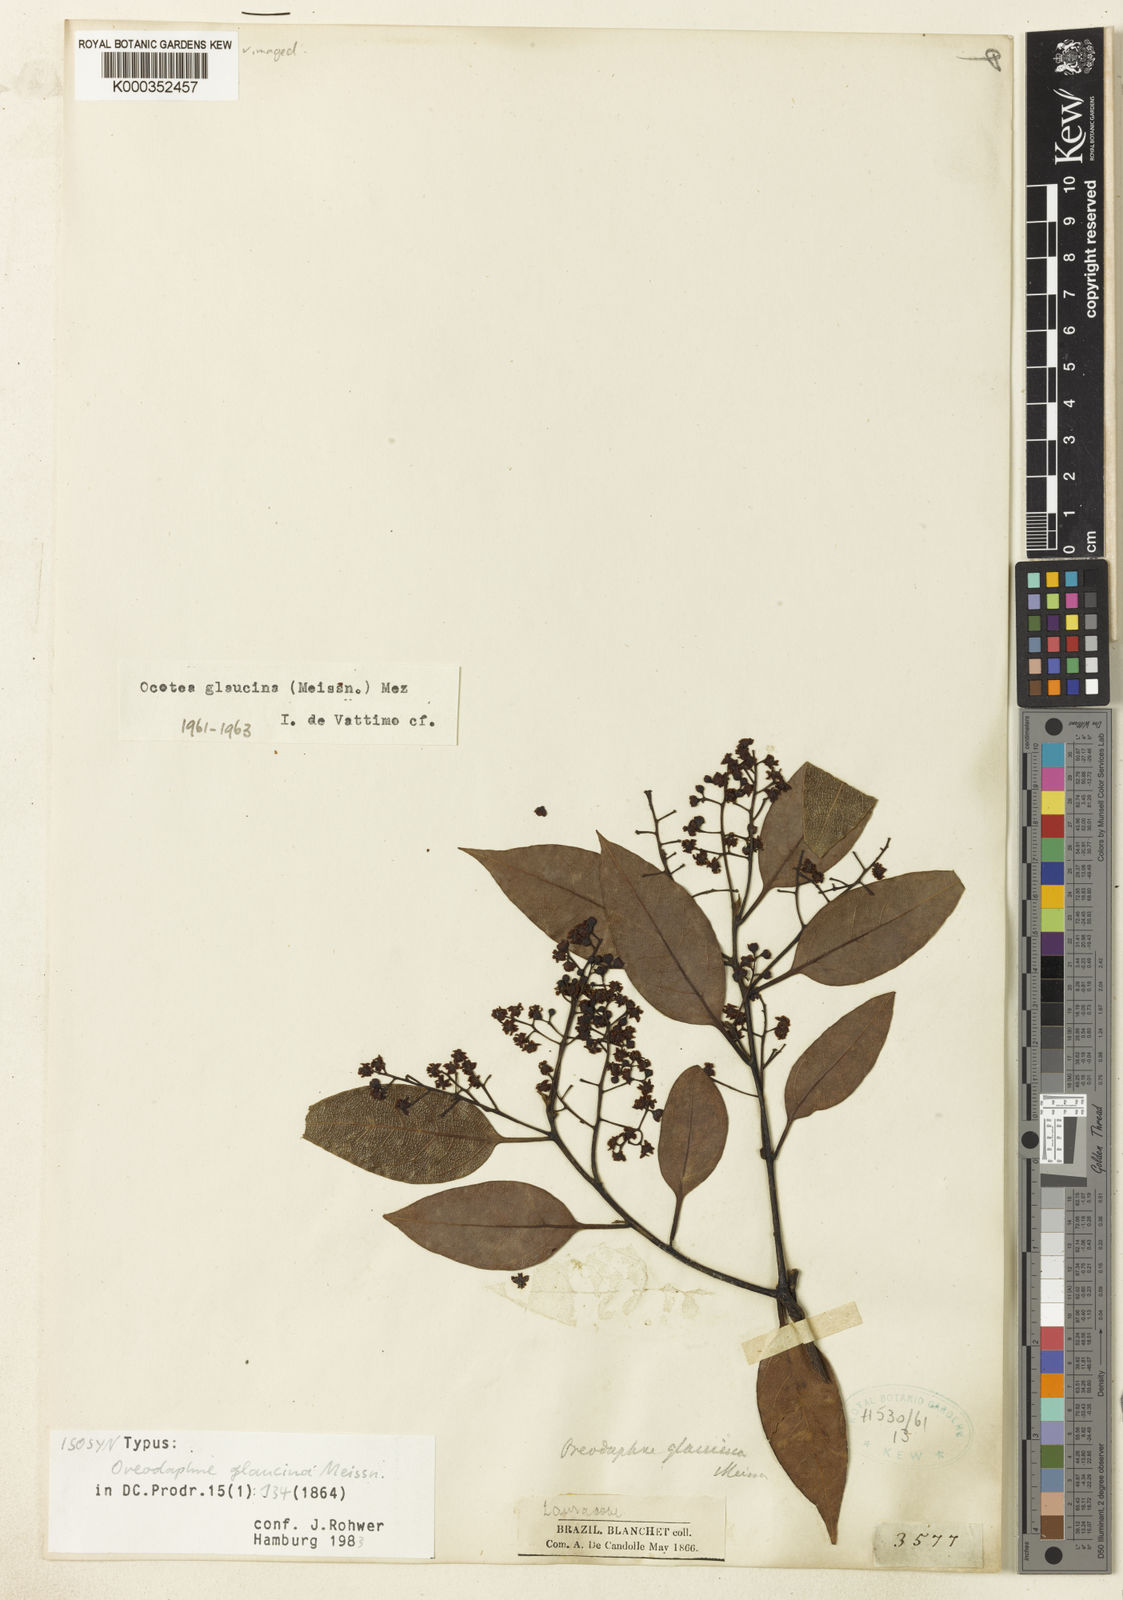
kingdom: Plantae
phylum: Tracheophyta
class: Magnoliopsida
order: Laurales
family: Lauraceae
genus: Mespilodaphne
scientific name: Mespilodaphne notata
